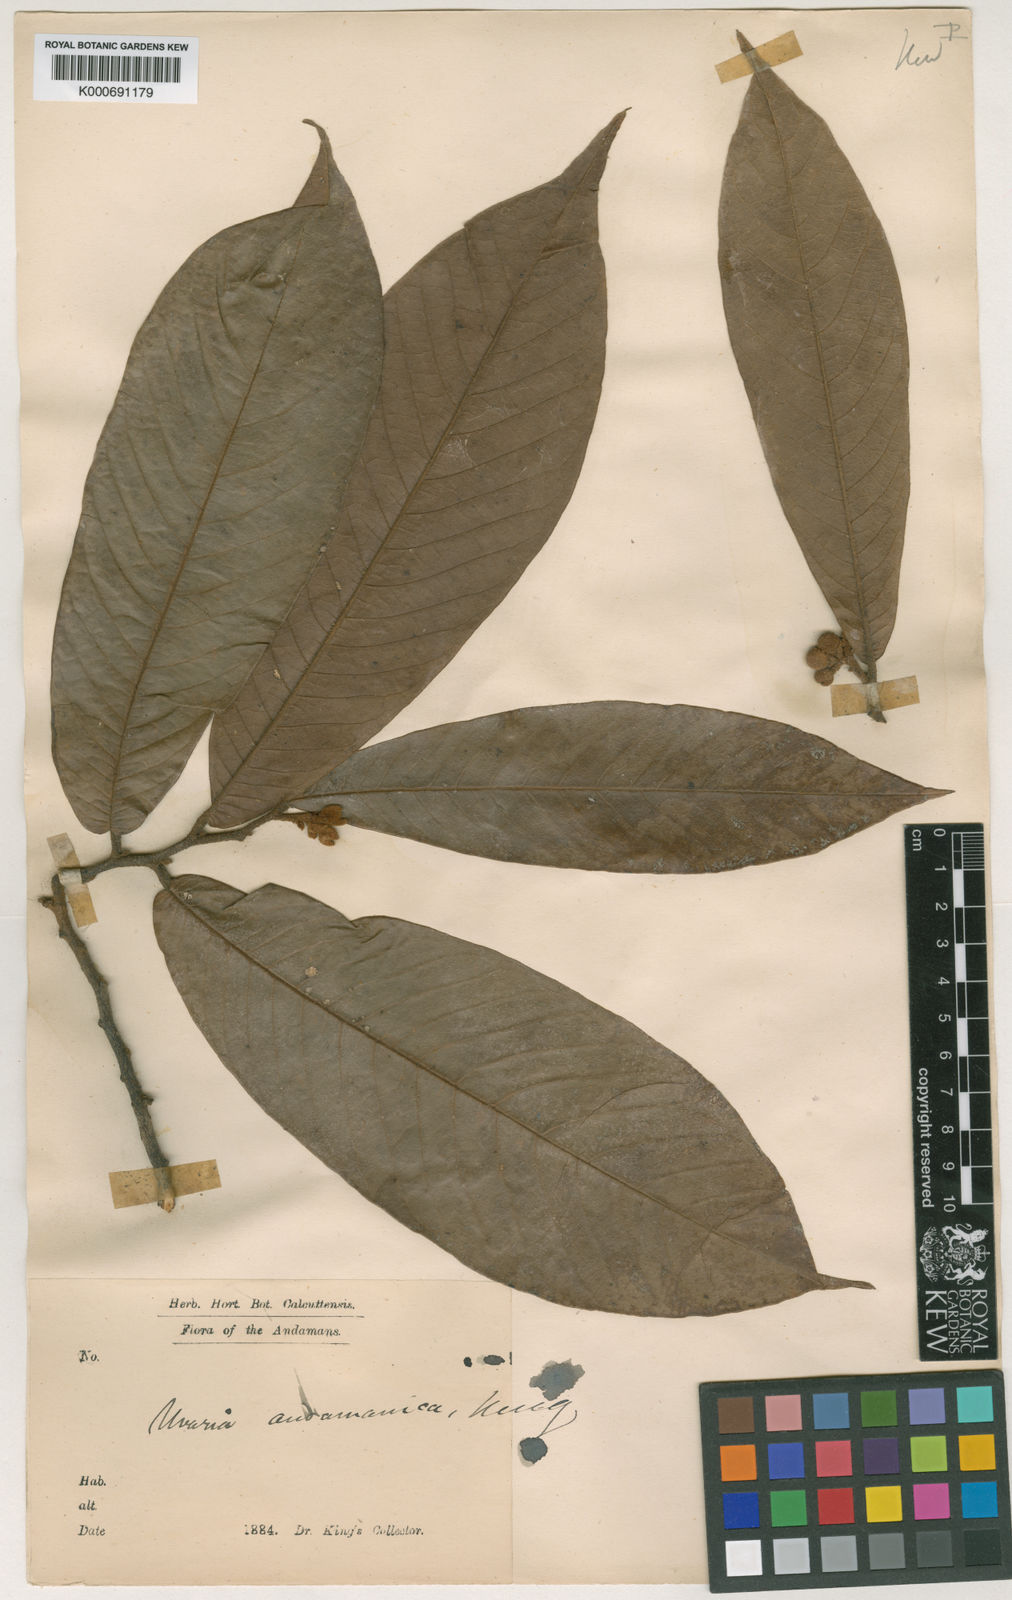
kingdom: Plantae
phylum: Tracheophyta
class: Magnoliopsida
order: Magnoliales
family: Annonaceae
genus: Uvaria
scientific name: Uvaria andamanica
